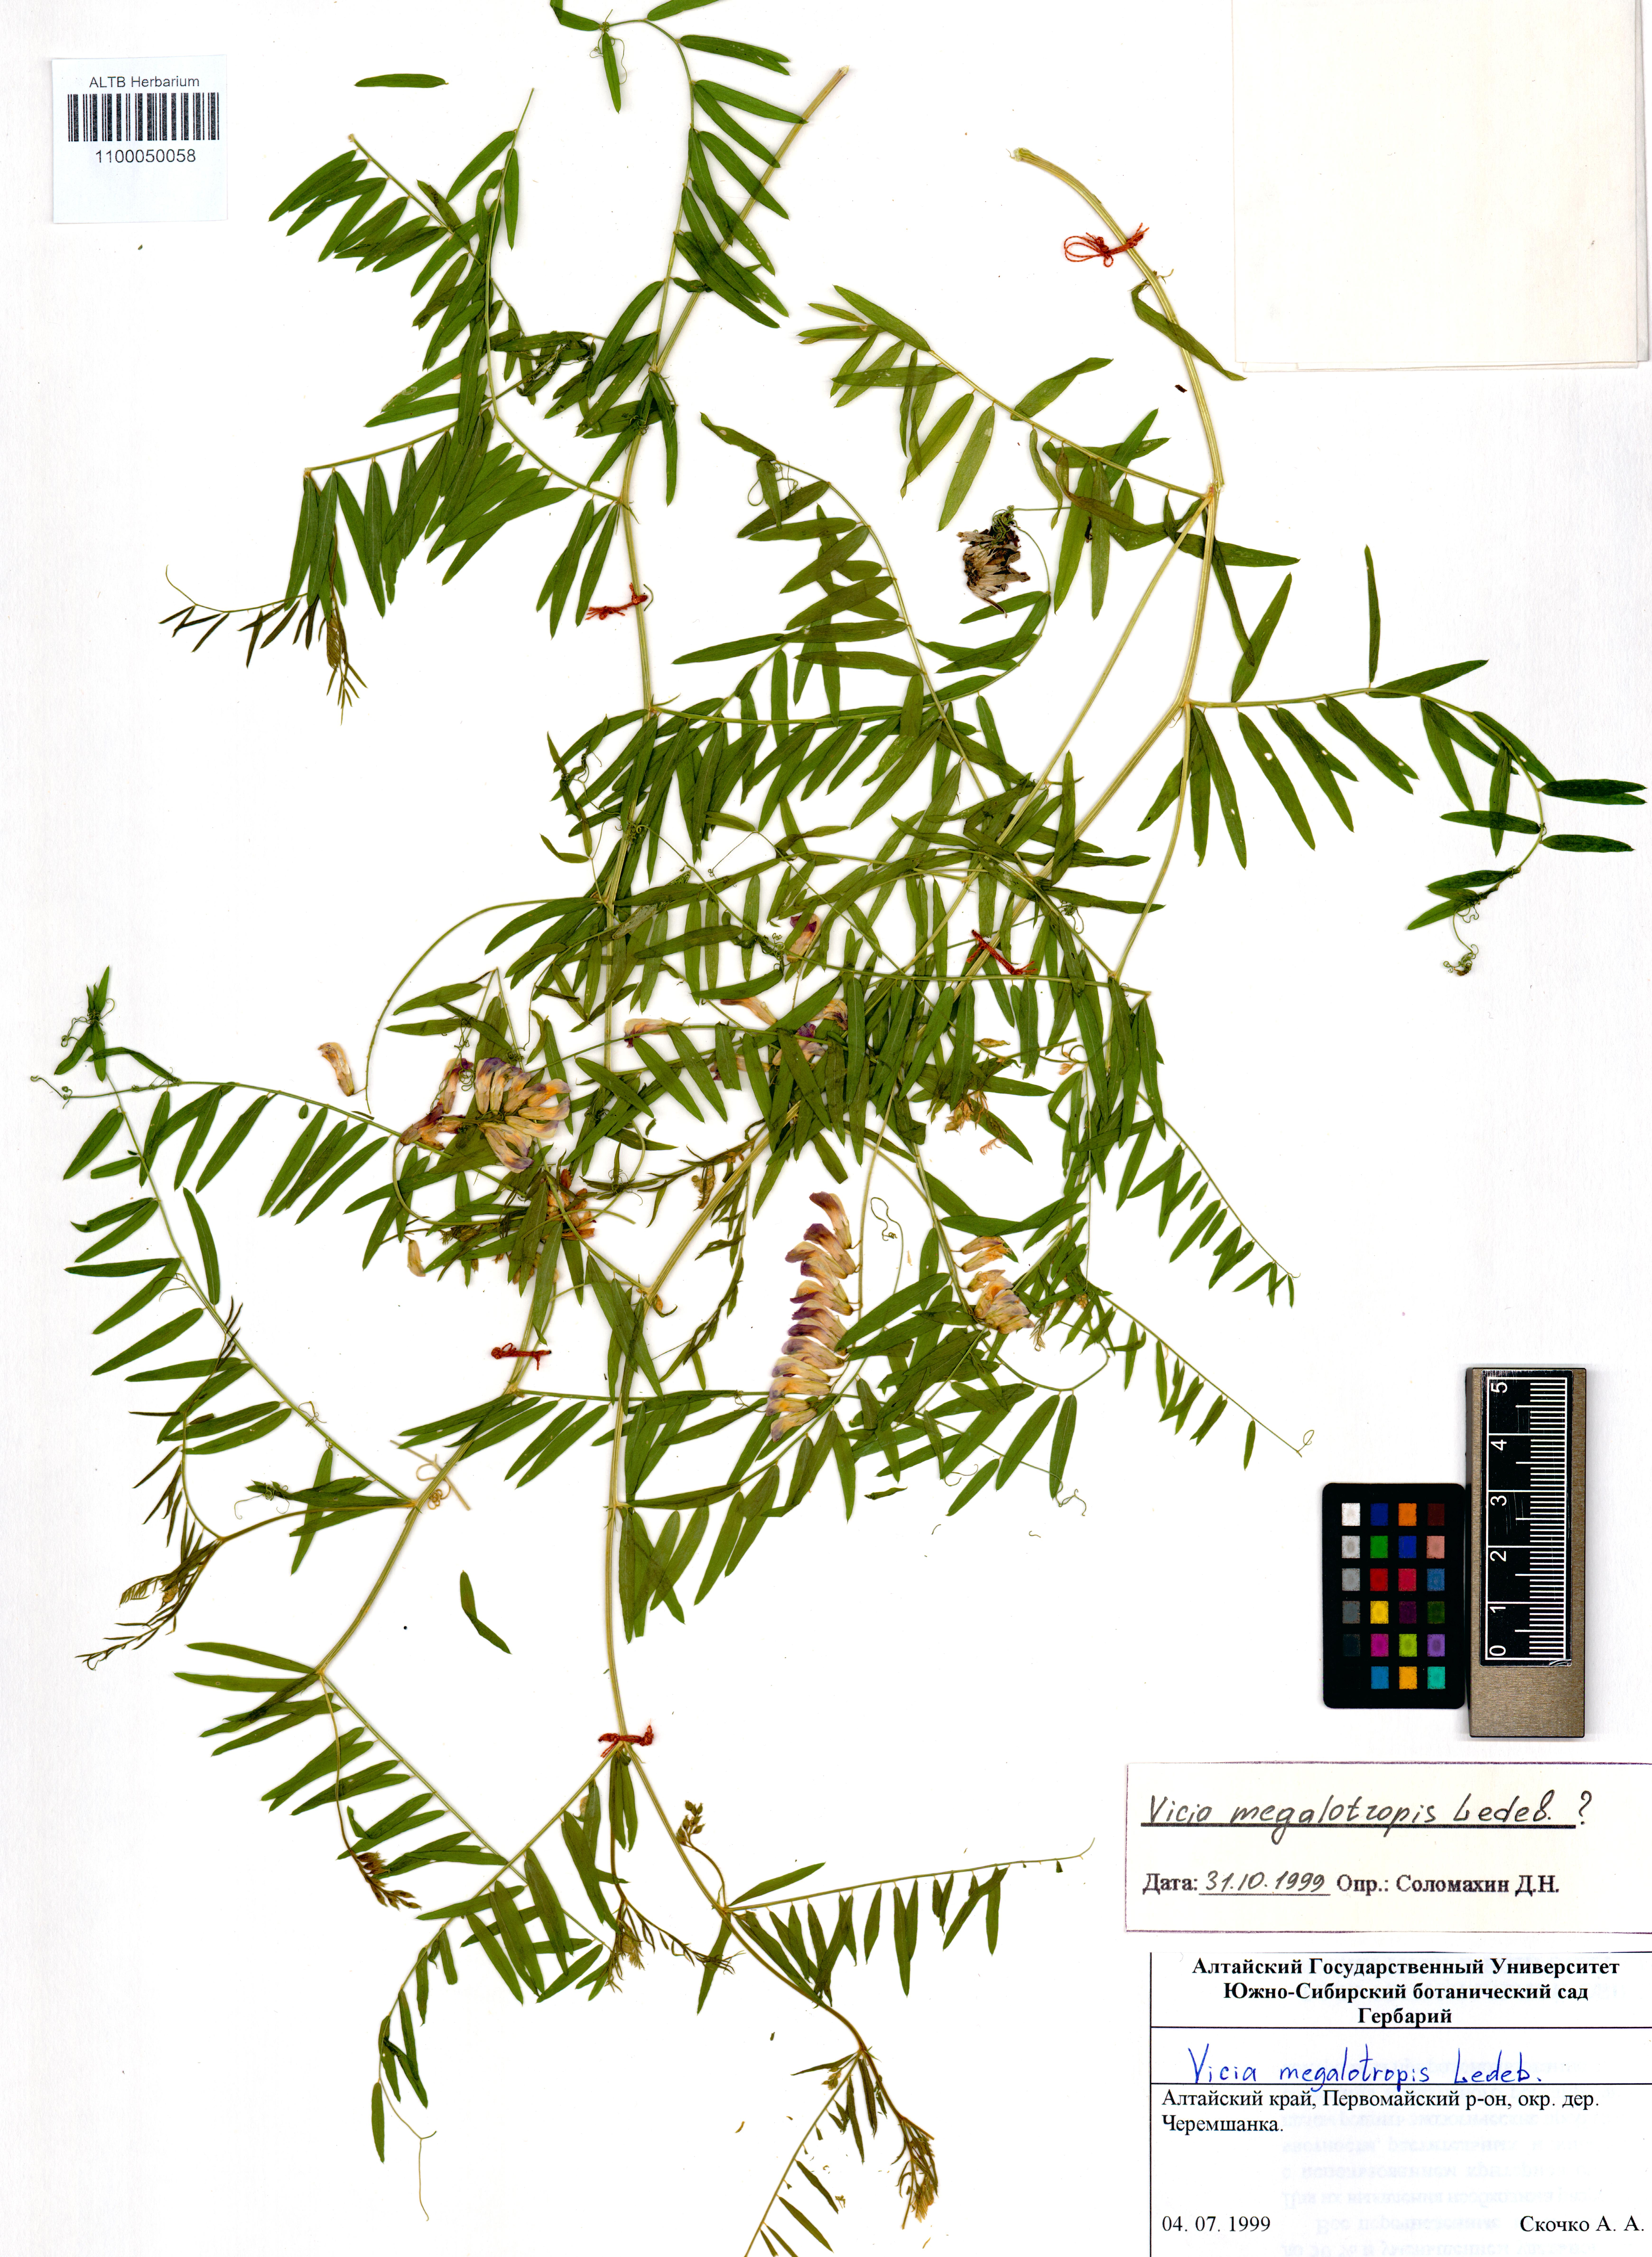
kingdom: Plantae
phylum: Tracheophyta
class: Magnoliopsida
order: Fabales
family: Fabaceae
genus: Vicia
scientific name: Vicia megalotropis
